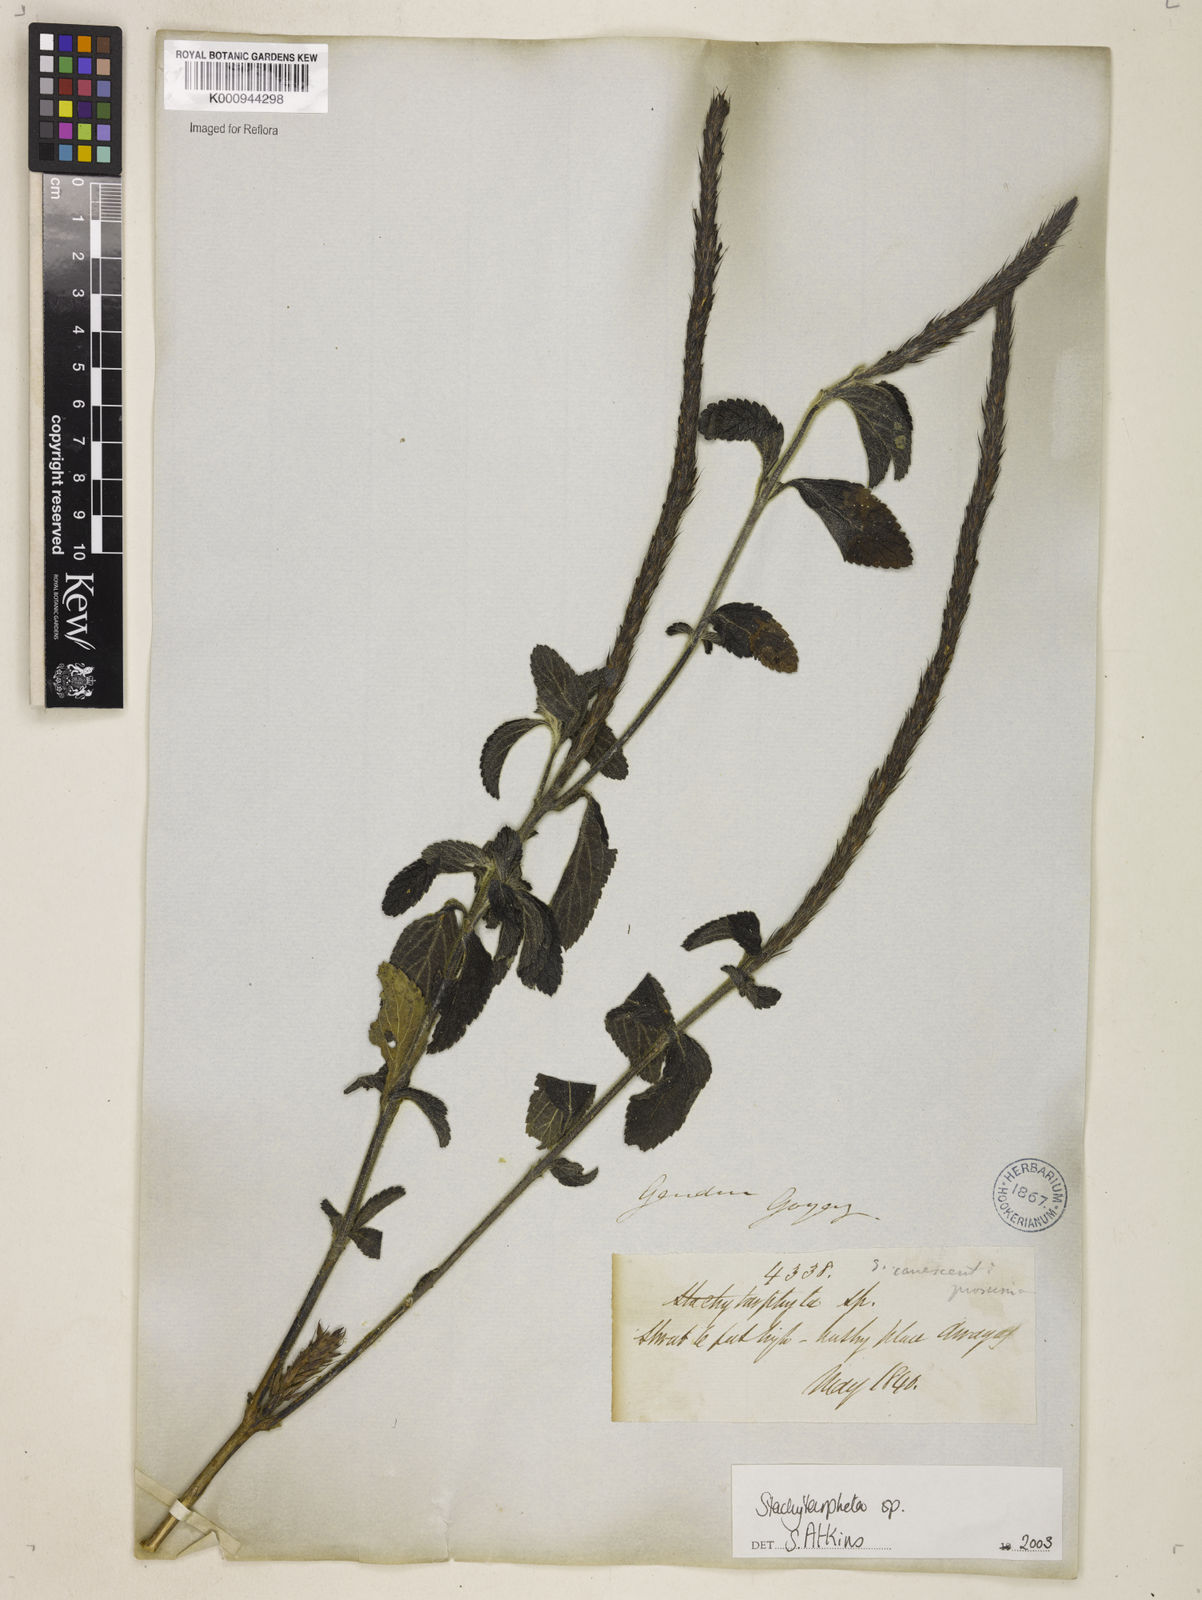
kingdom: Plantae
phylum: Tracheophyta
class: Magnoliopsida
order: Lamiales
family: Verbenaceae
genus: Stachytarpheta
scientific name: Stachytarpheta
